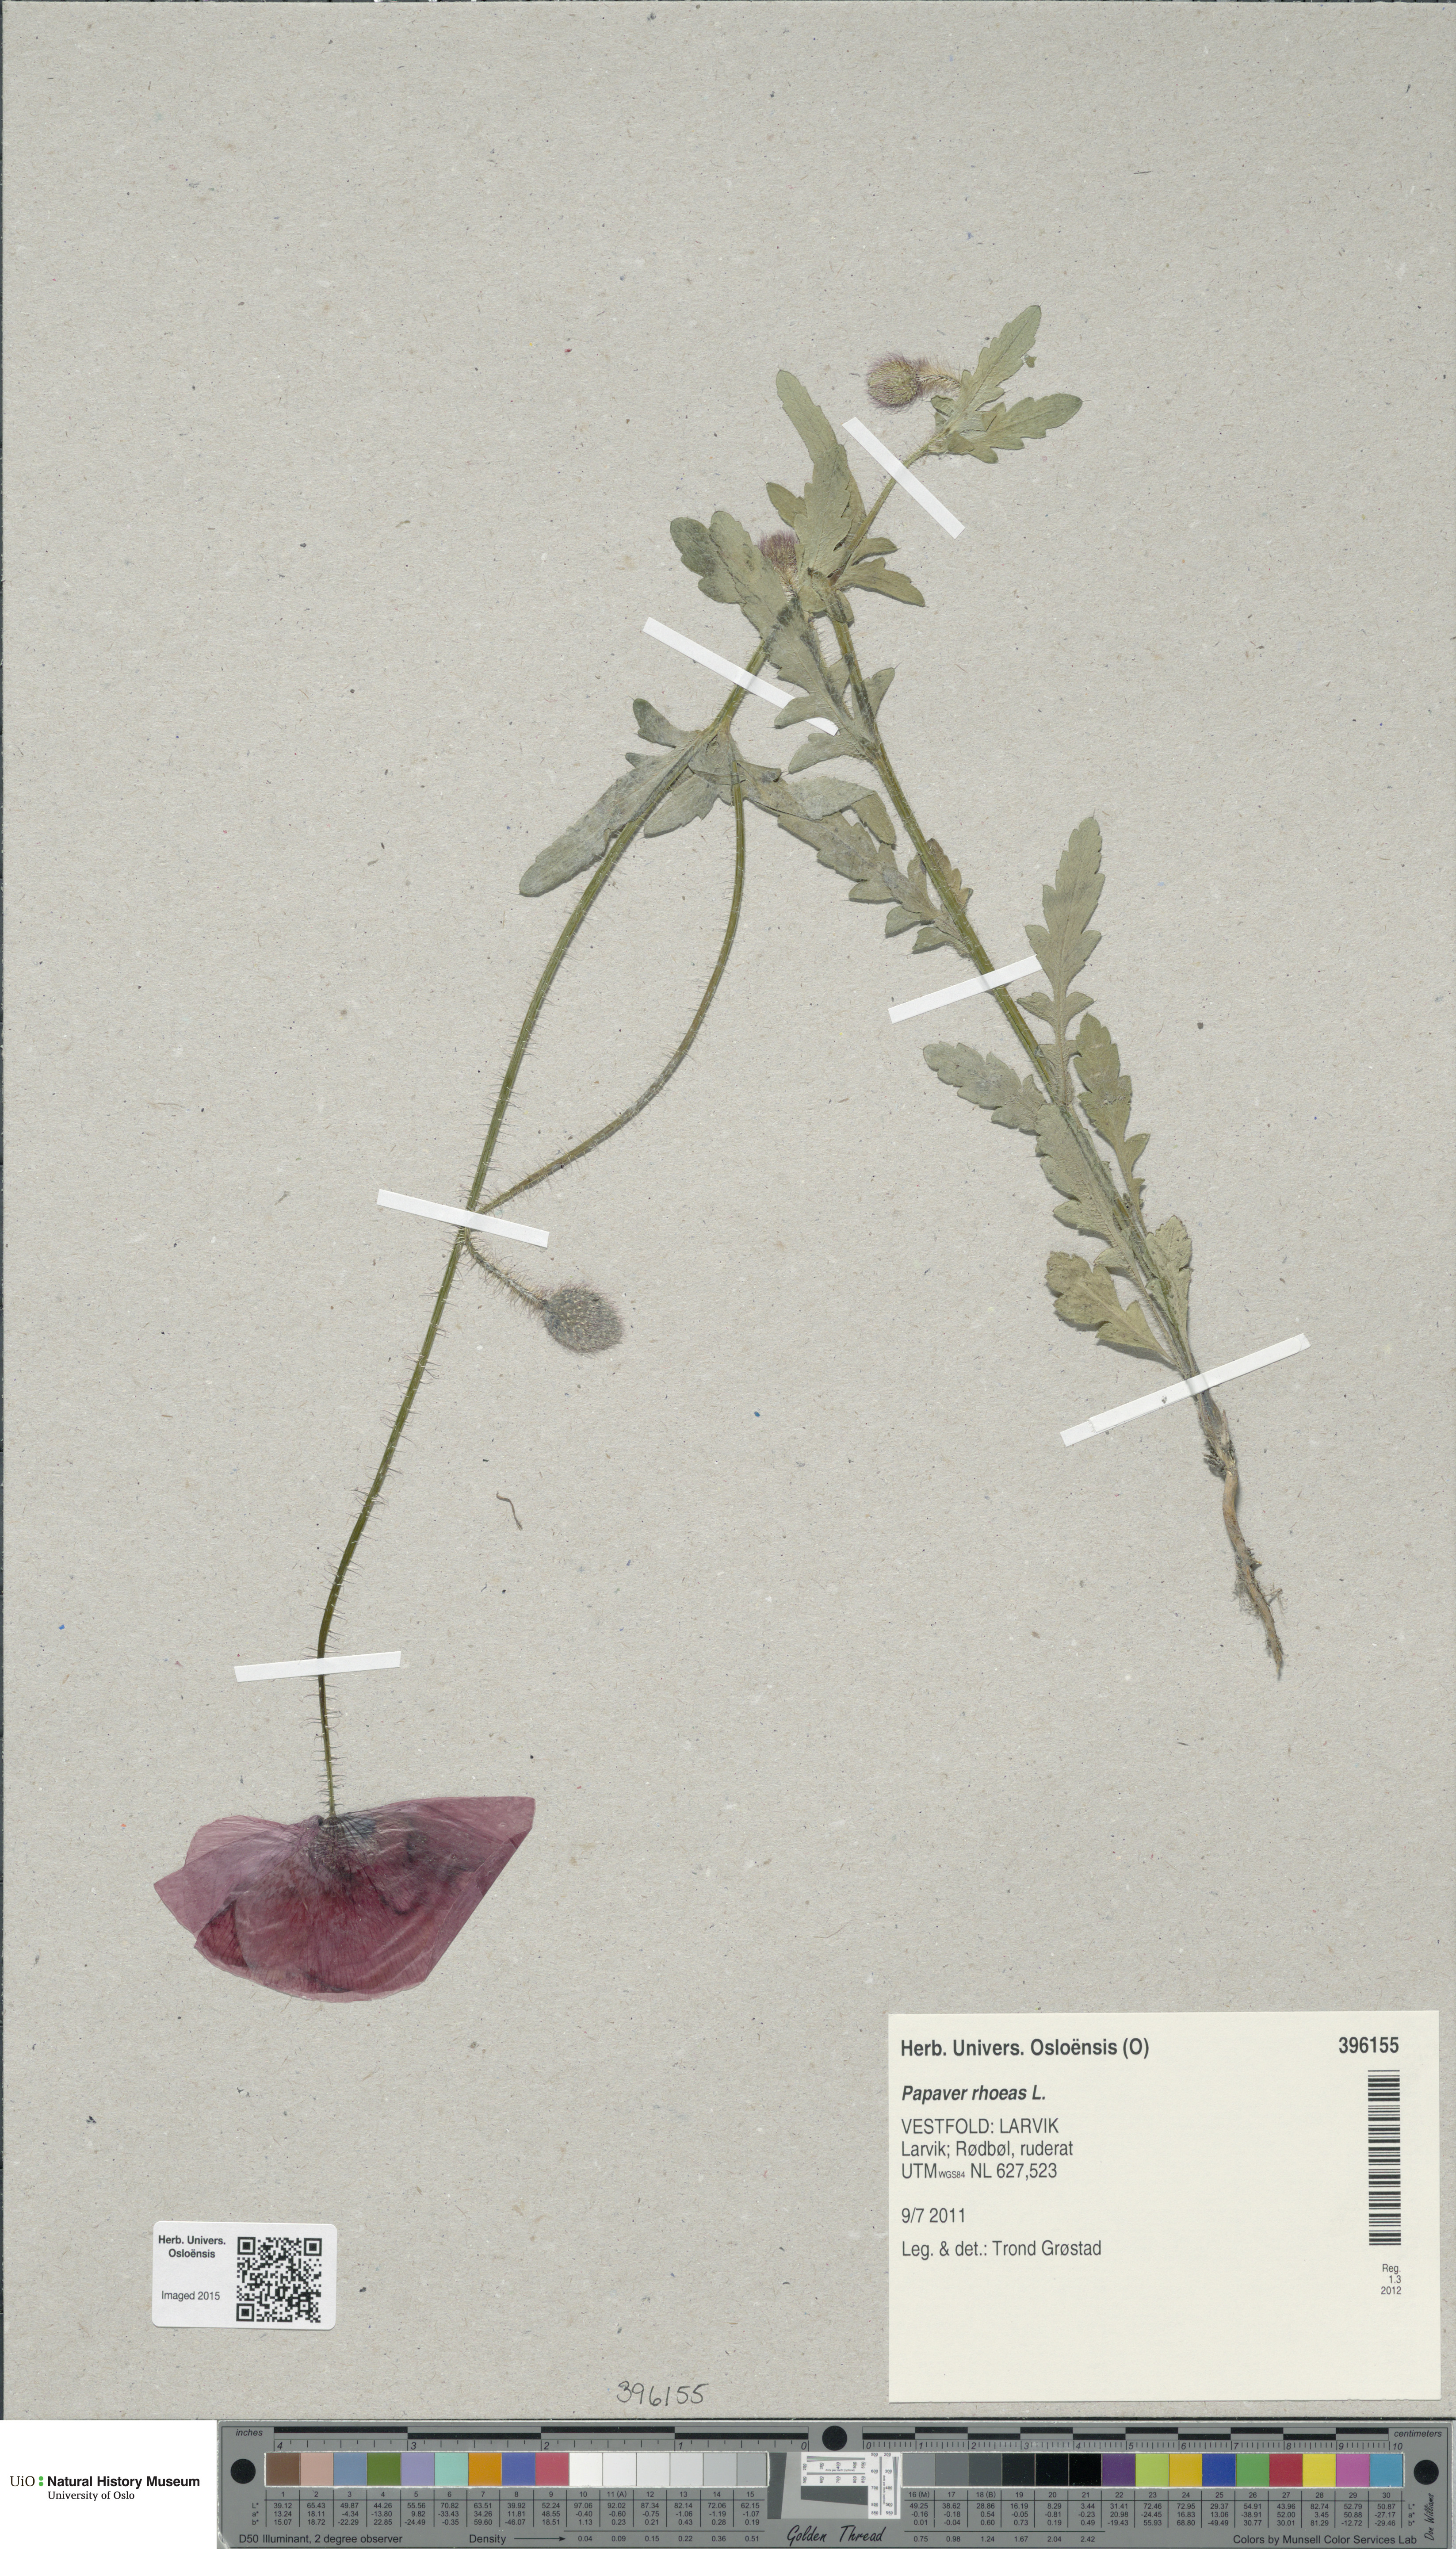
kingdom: Plantae
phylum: Tracheophyta
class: Magnoliopsida
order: Ranunculales
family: Papaveraceae
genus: Papaver
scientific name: Papaver rhoeas
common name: Corn poppy
